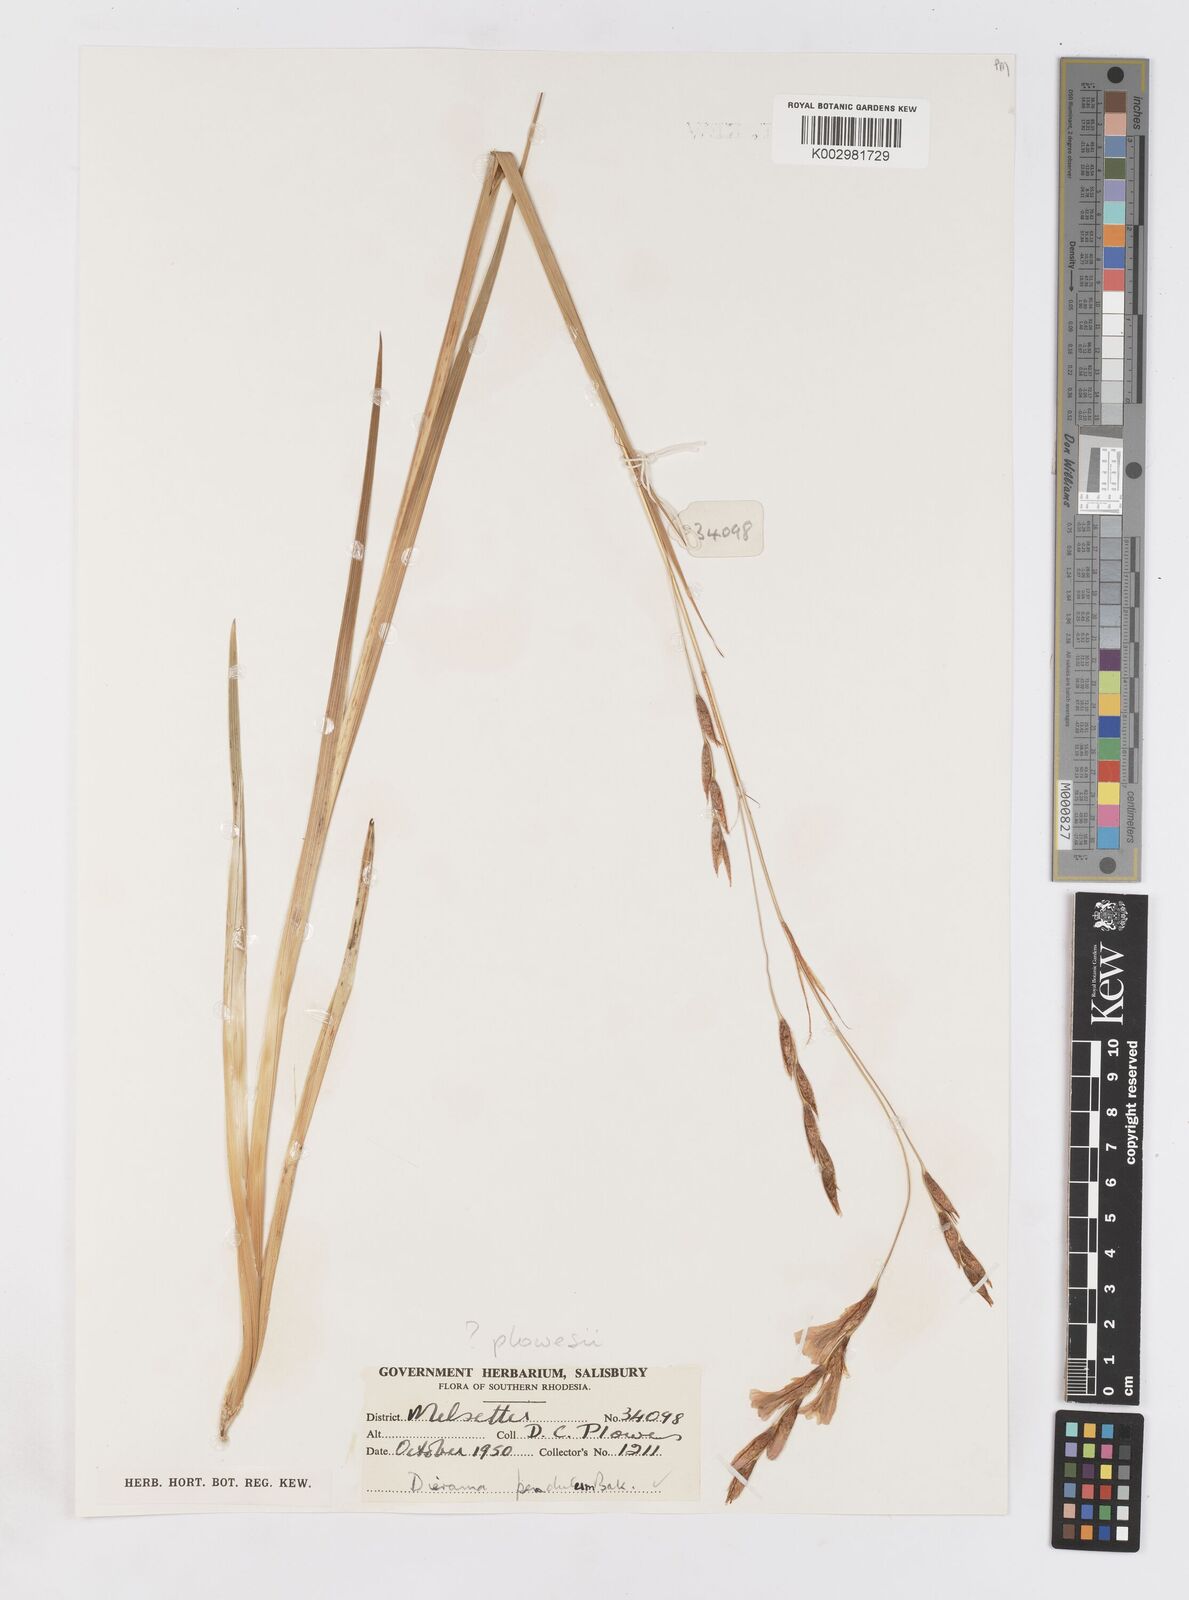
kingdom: Plantae
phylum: Tracheophyta
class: Liliopsida
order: Asparagales
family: Iridaceae
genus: Dierama
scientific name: Dierama
